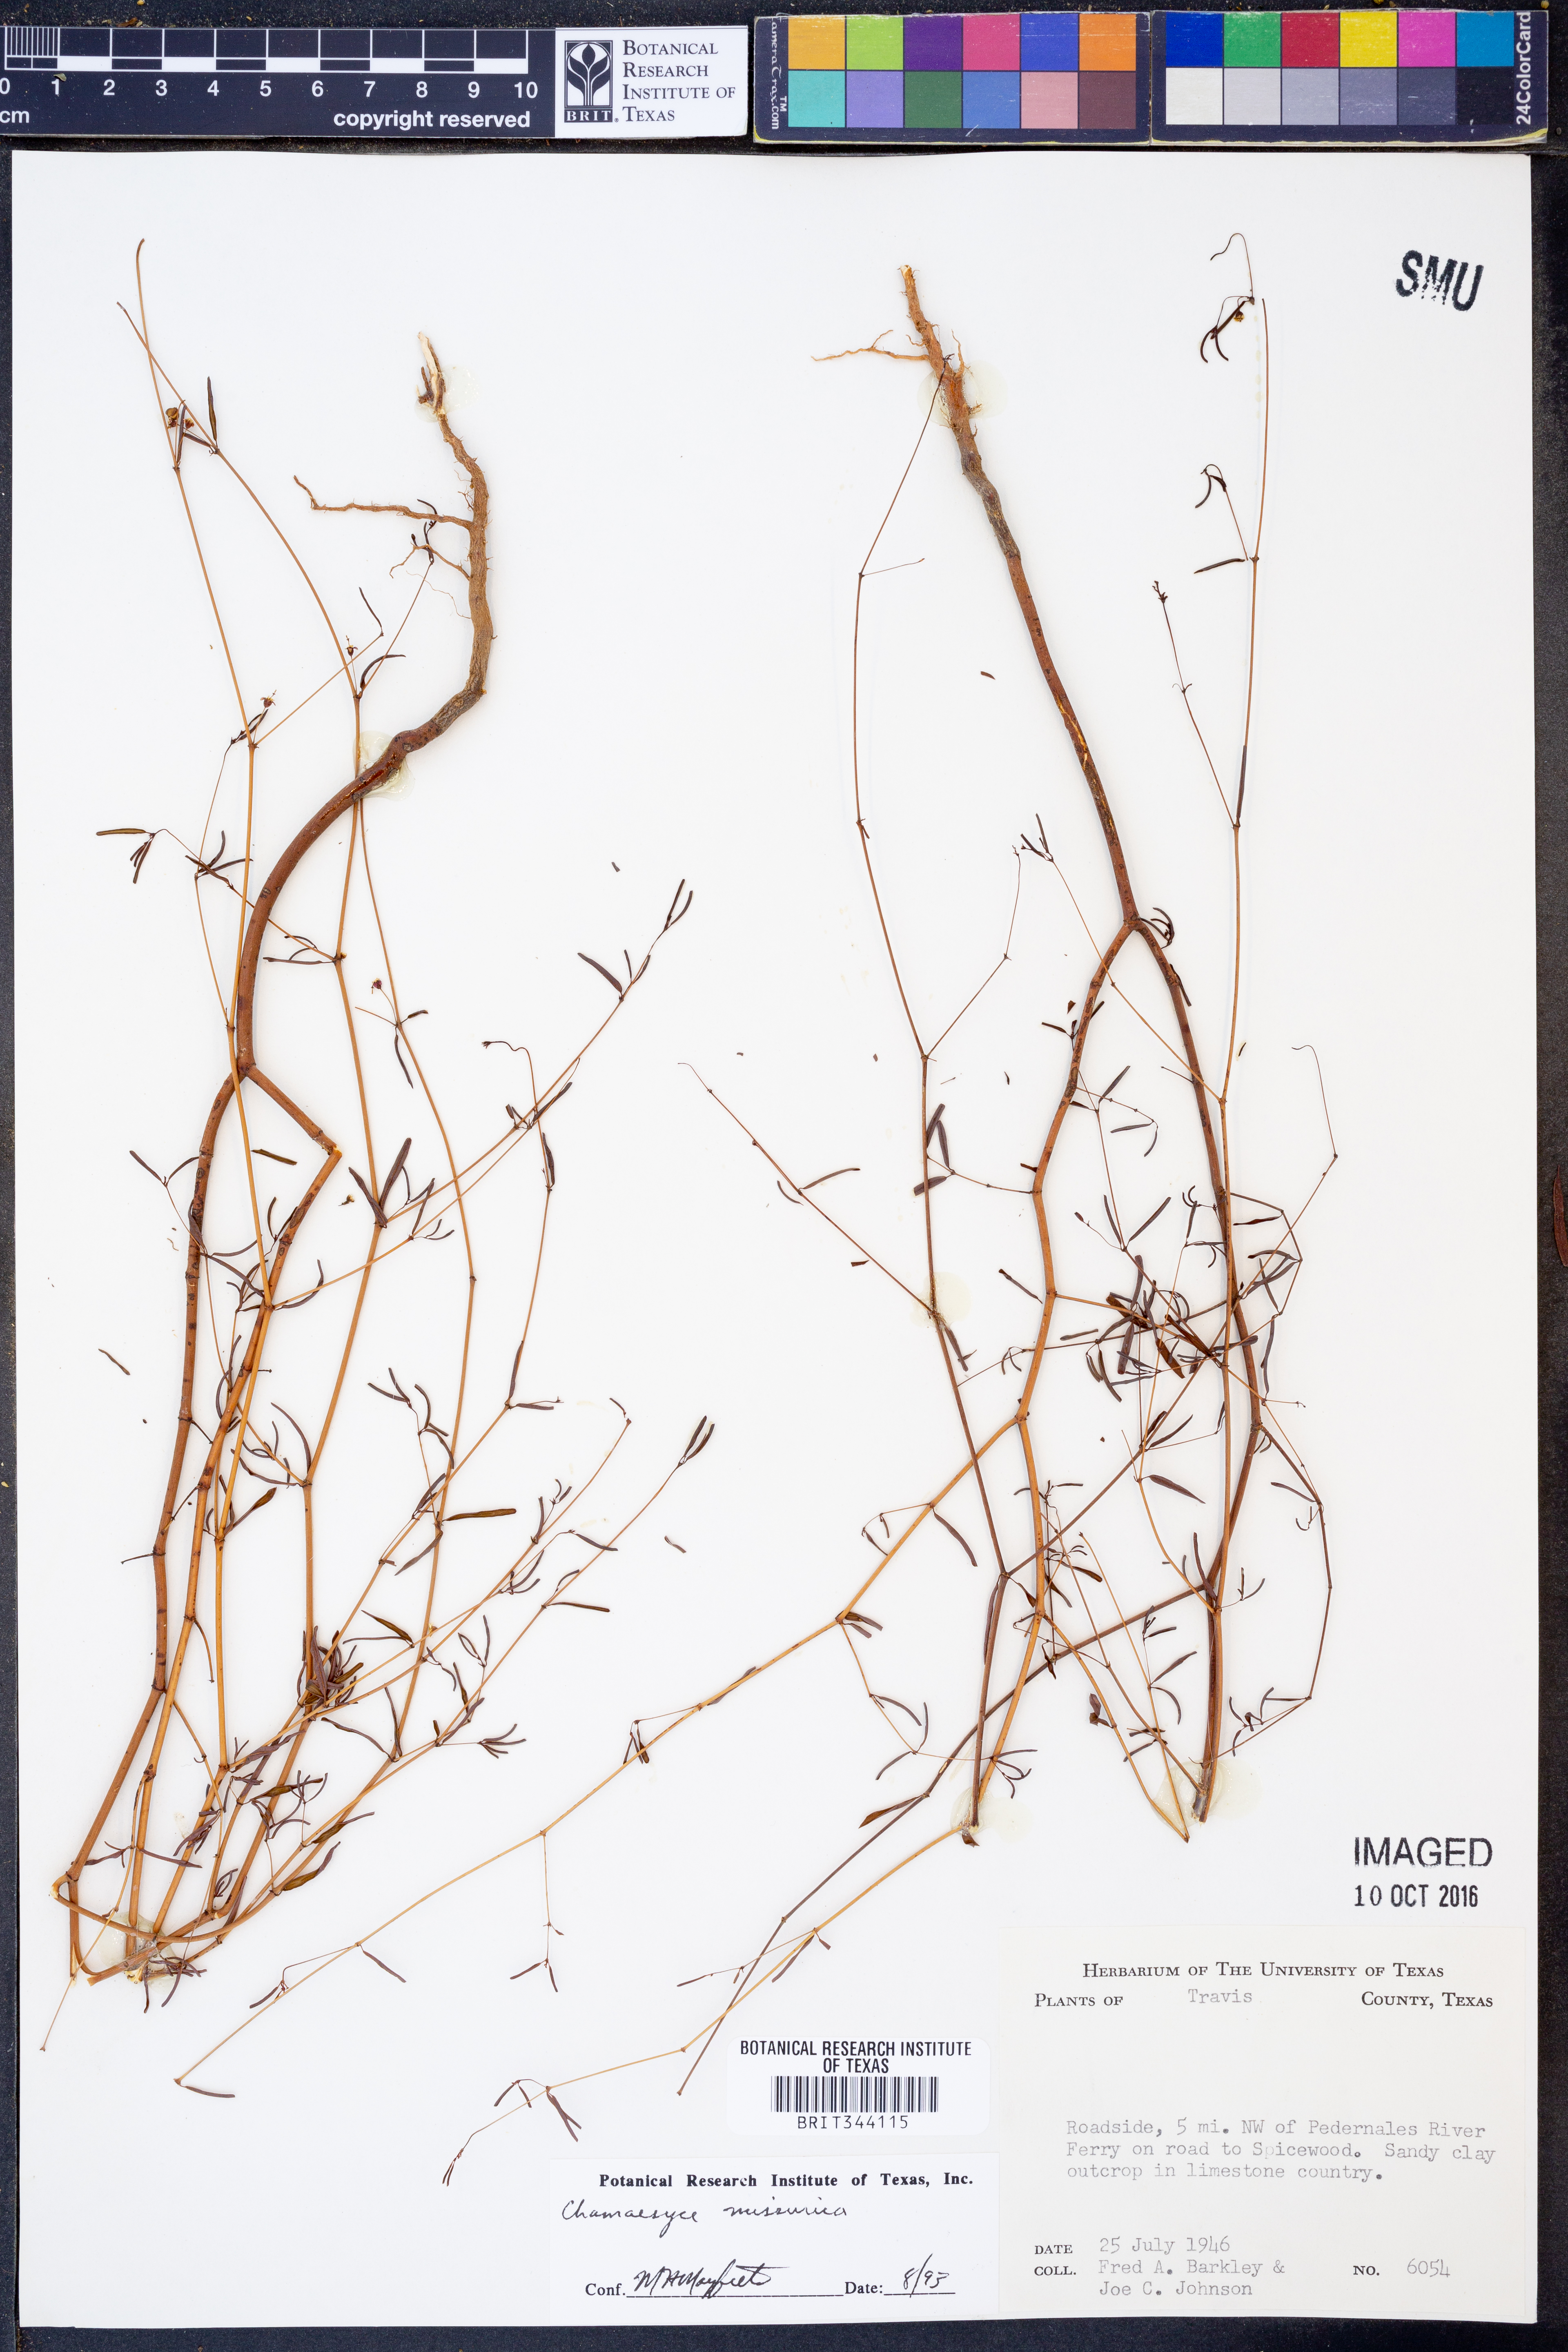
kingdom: Plantae
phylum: Tracheophyta
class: Magnoliopsida
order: Malpighiales
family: Euphorbiaceae
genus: Euphorbia
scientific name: Euphorbia missurica
